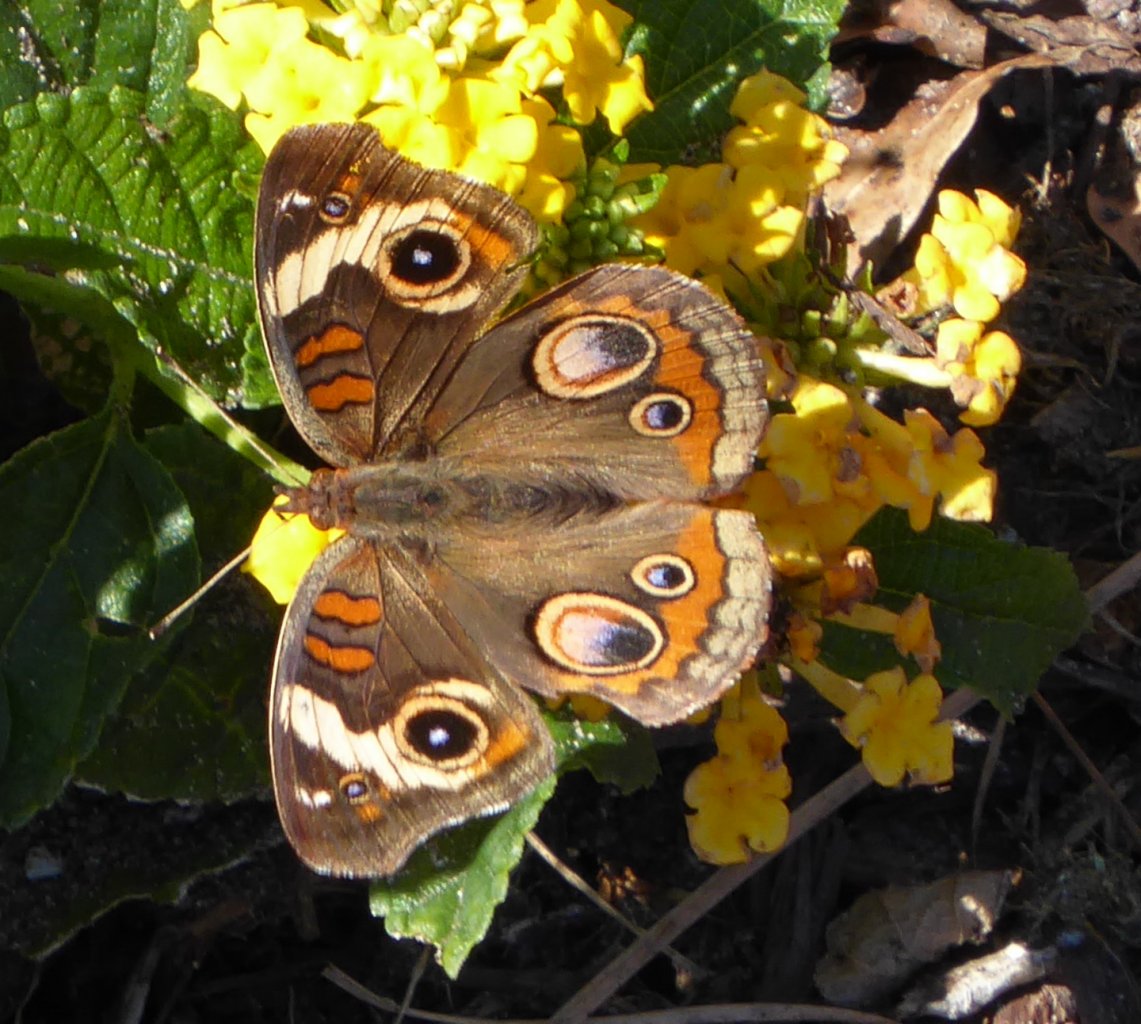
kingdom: Animalia
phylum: Arthropoda
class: Insecta
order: Lepidoptera
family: Nymphalidae
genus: Junonia
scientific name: Junonia coenia
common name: Common Buckeye
